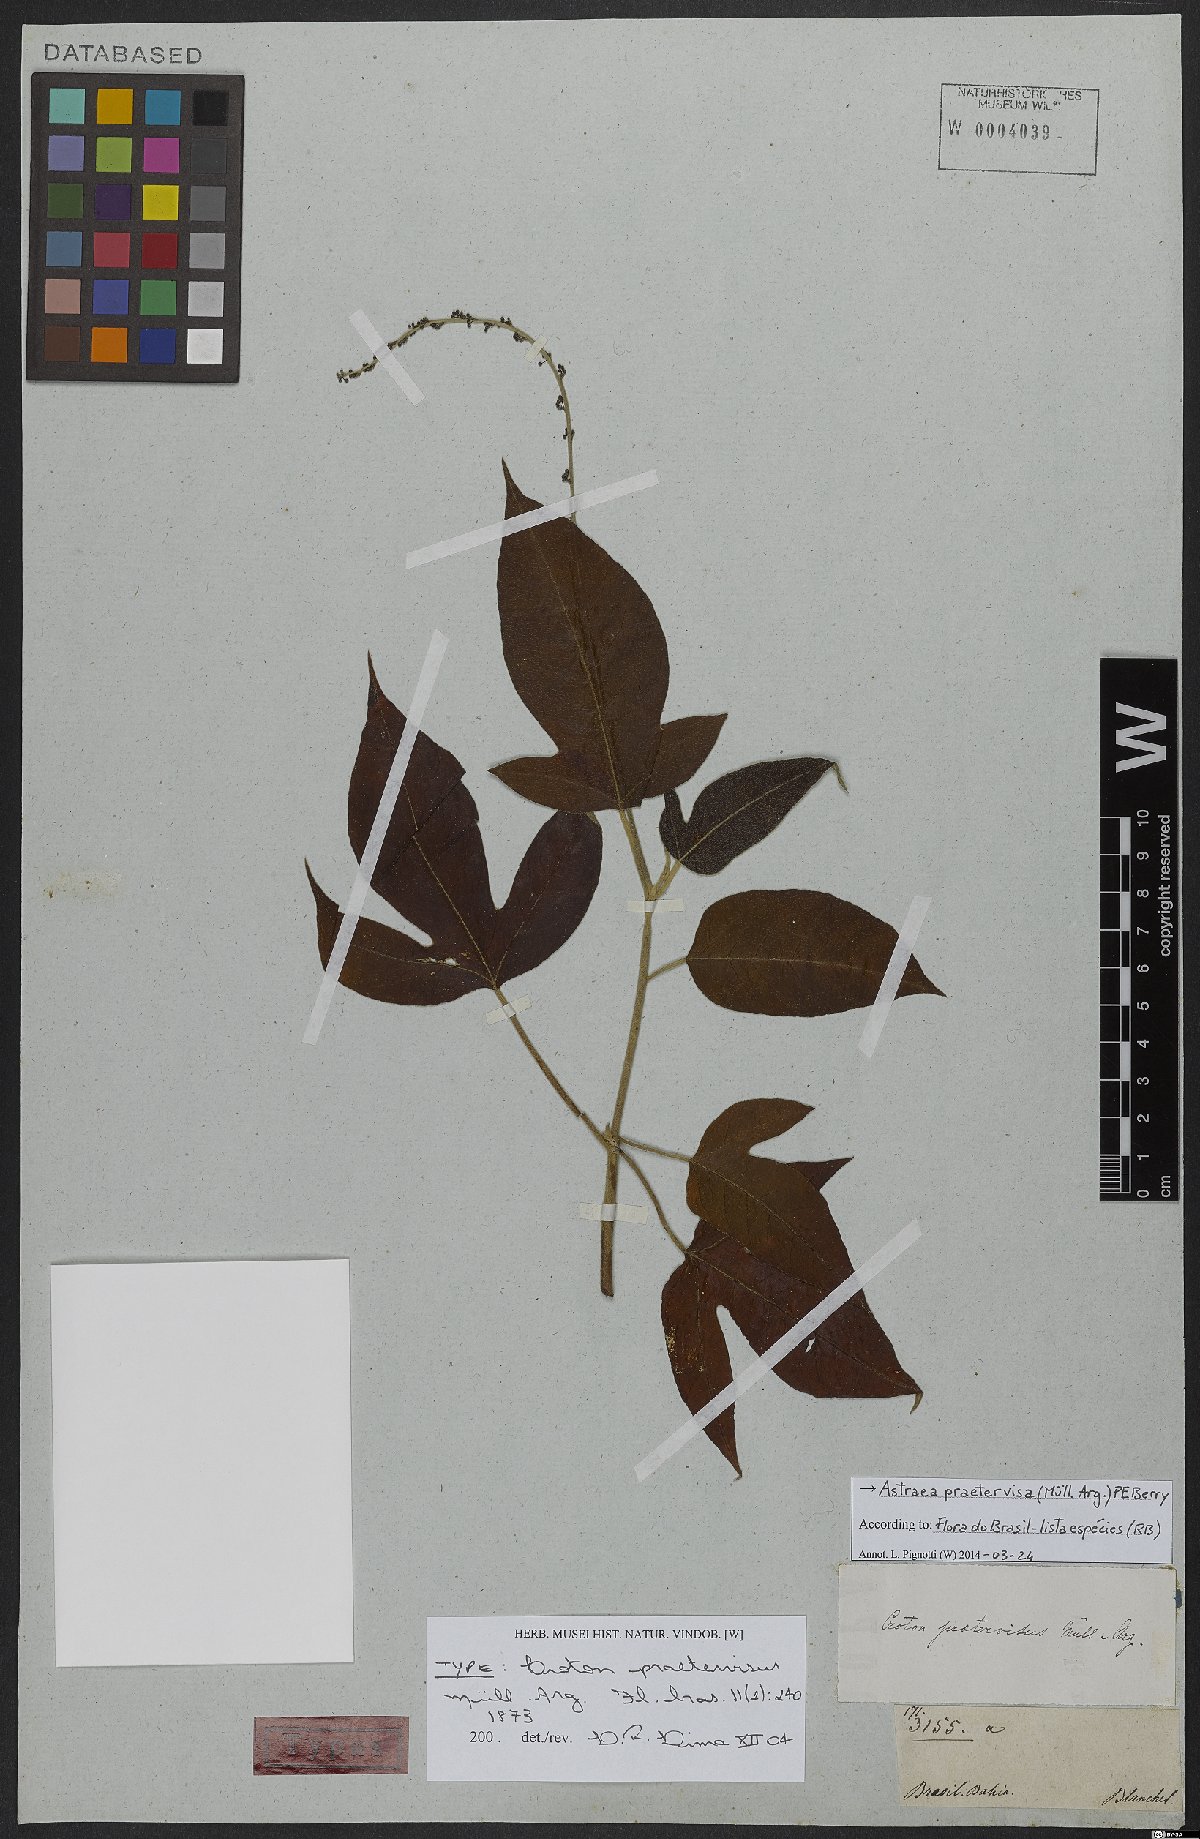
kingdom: Plantae
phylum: Tracheophyta
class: Magnoliopsida
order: Malpighiales
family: Euphorbiaceae
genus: Astraea
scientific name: Astraea praetervisa
